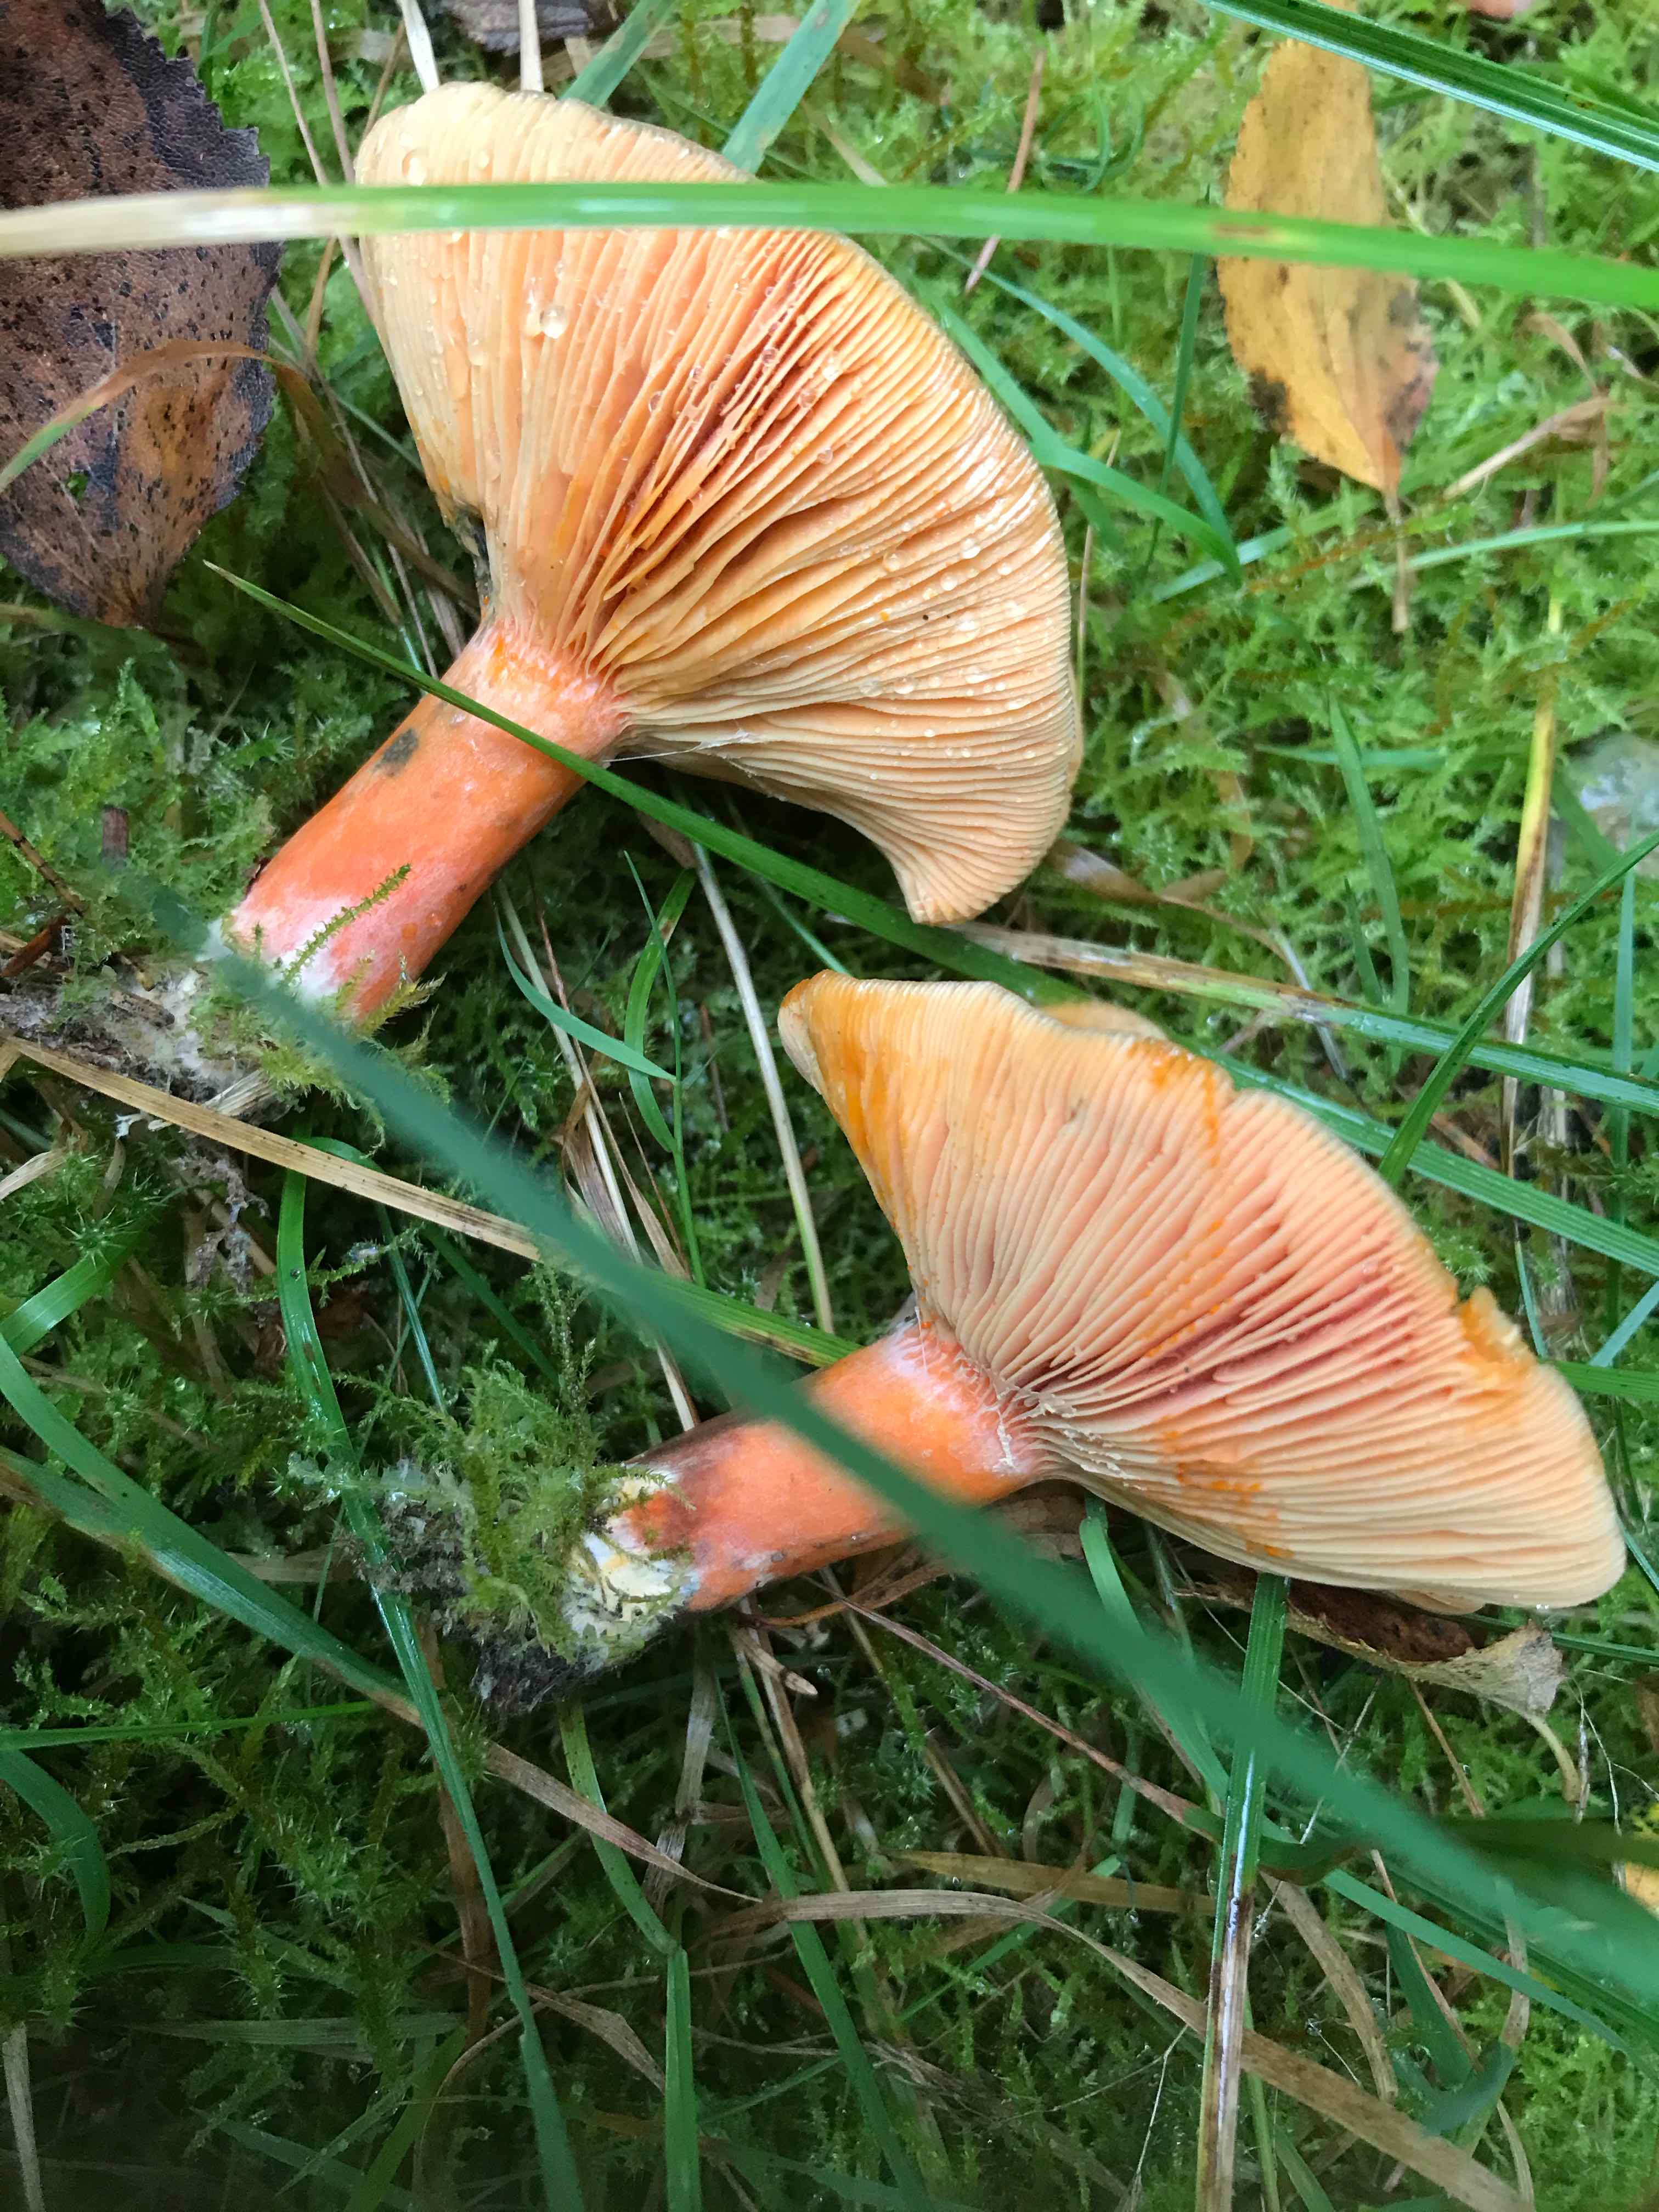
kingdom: Fungi
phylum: Basidiomycota
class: Agaricomycetes
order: Russulales
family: Russulaceae
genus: Lactarius
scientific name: Lactarius deterrimus
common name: gran-mælkehat
